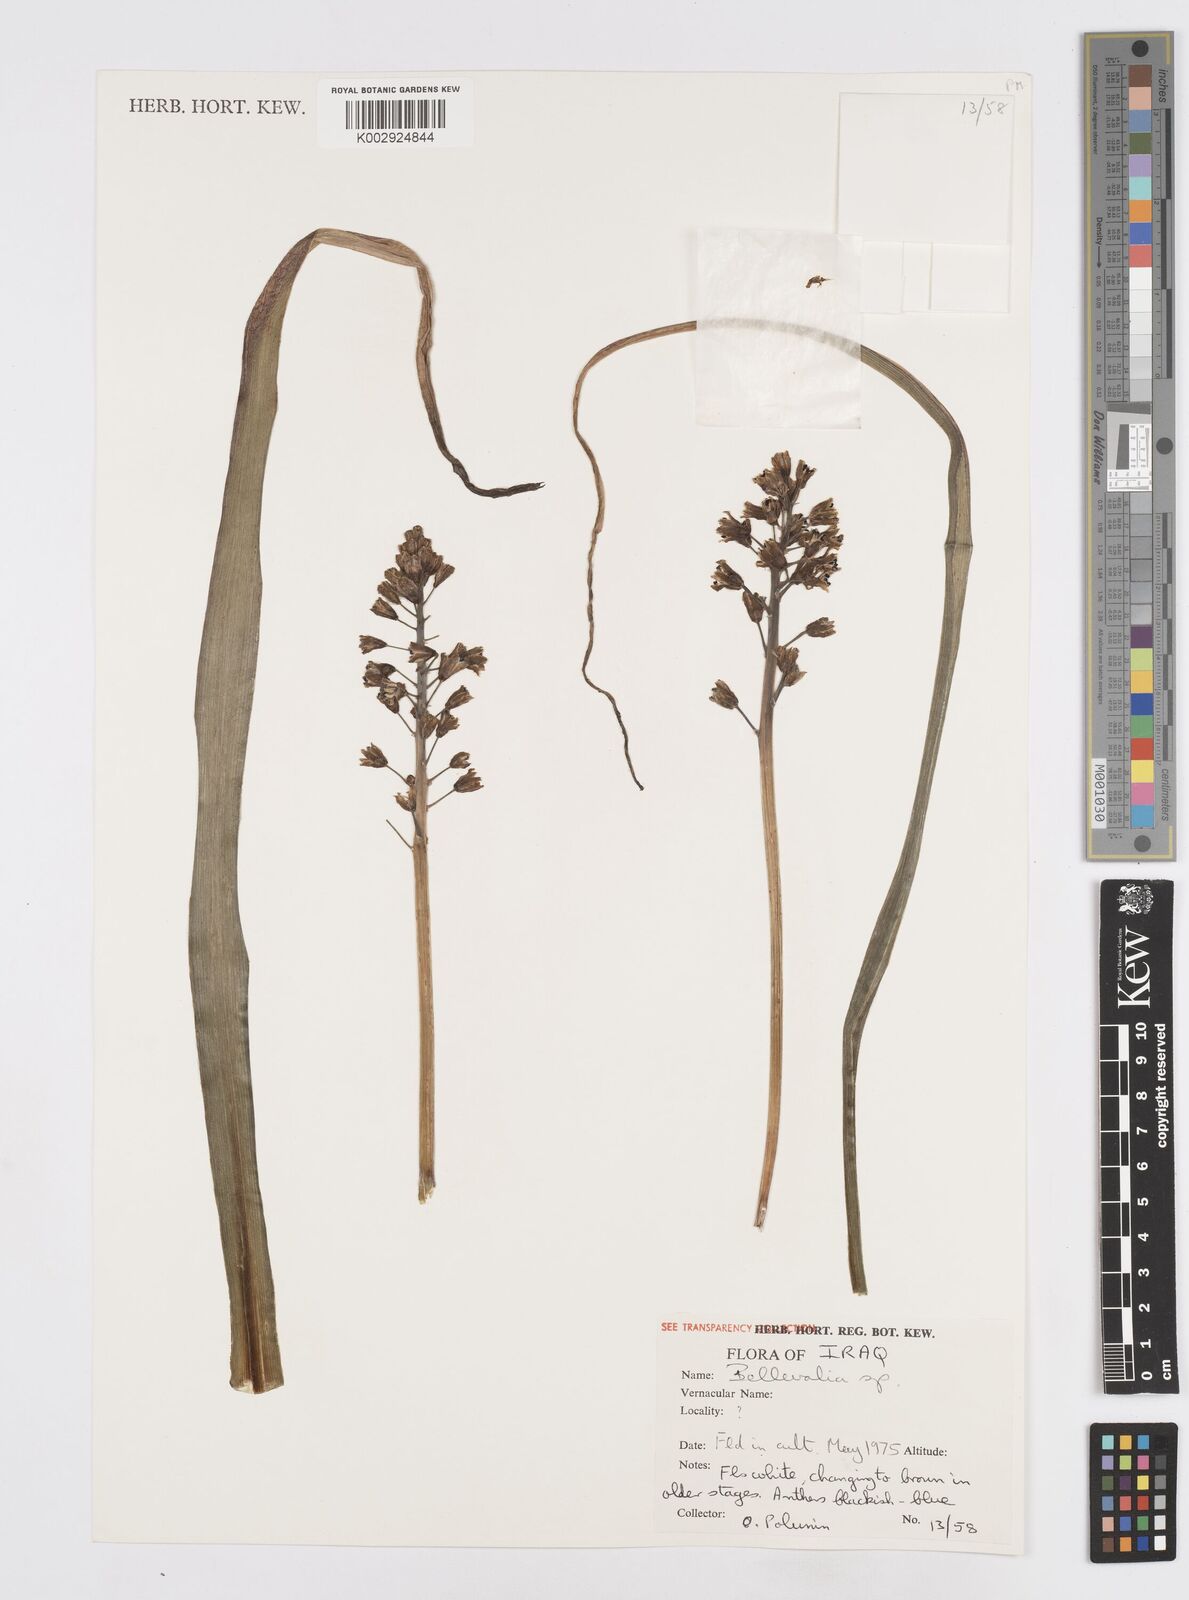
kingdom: Plantae
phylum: Tracheophyta
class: Liliopsida
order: Asparagales
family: Asparagaceae
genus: Bellevalia
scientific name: Bellevalia
